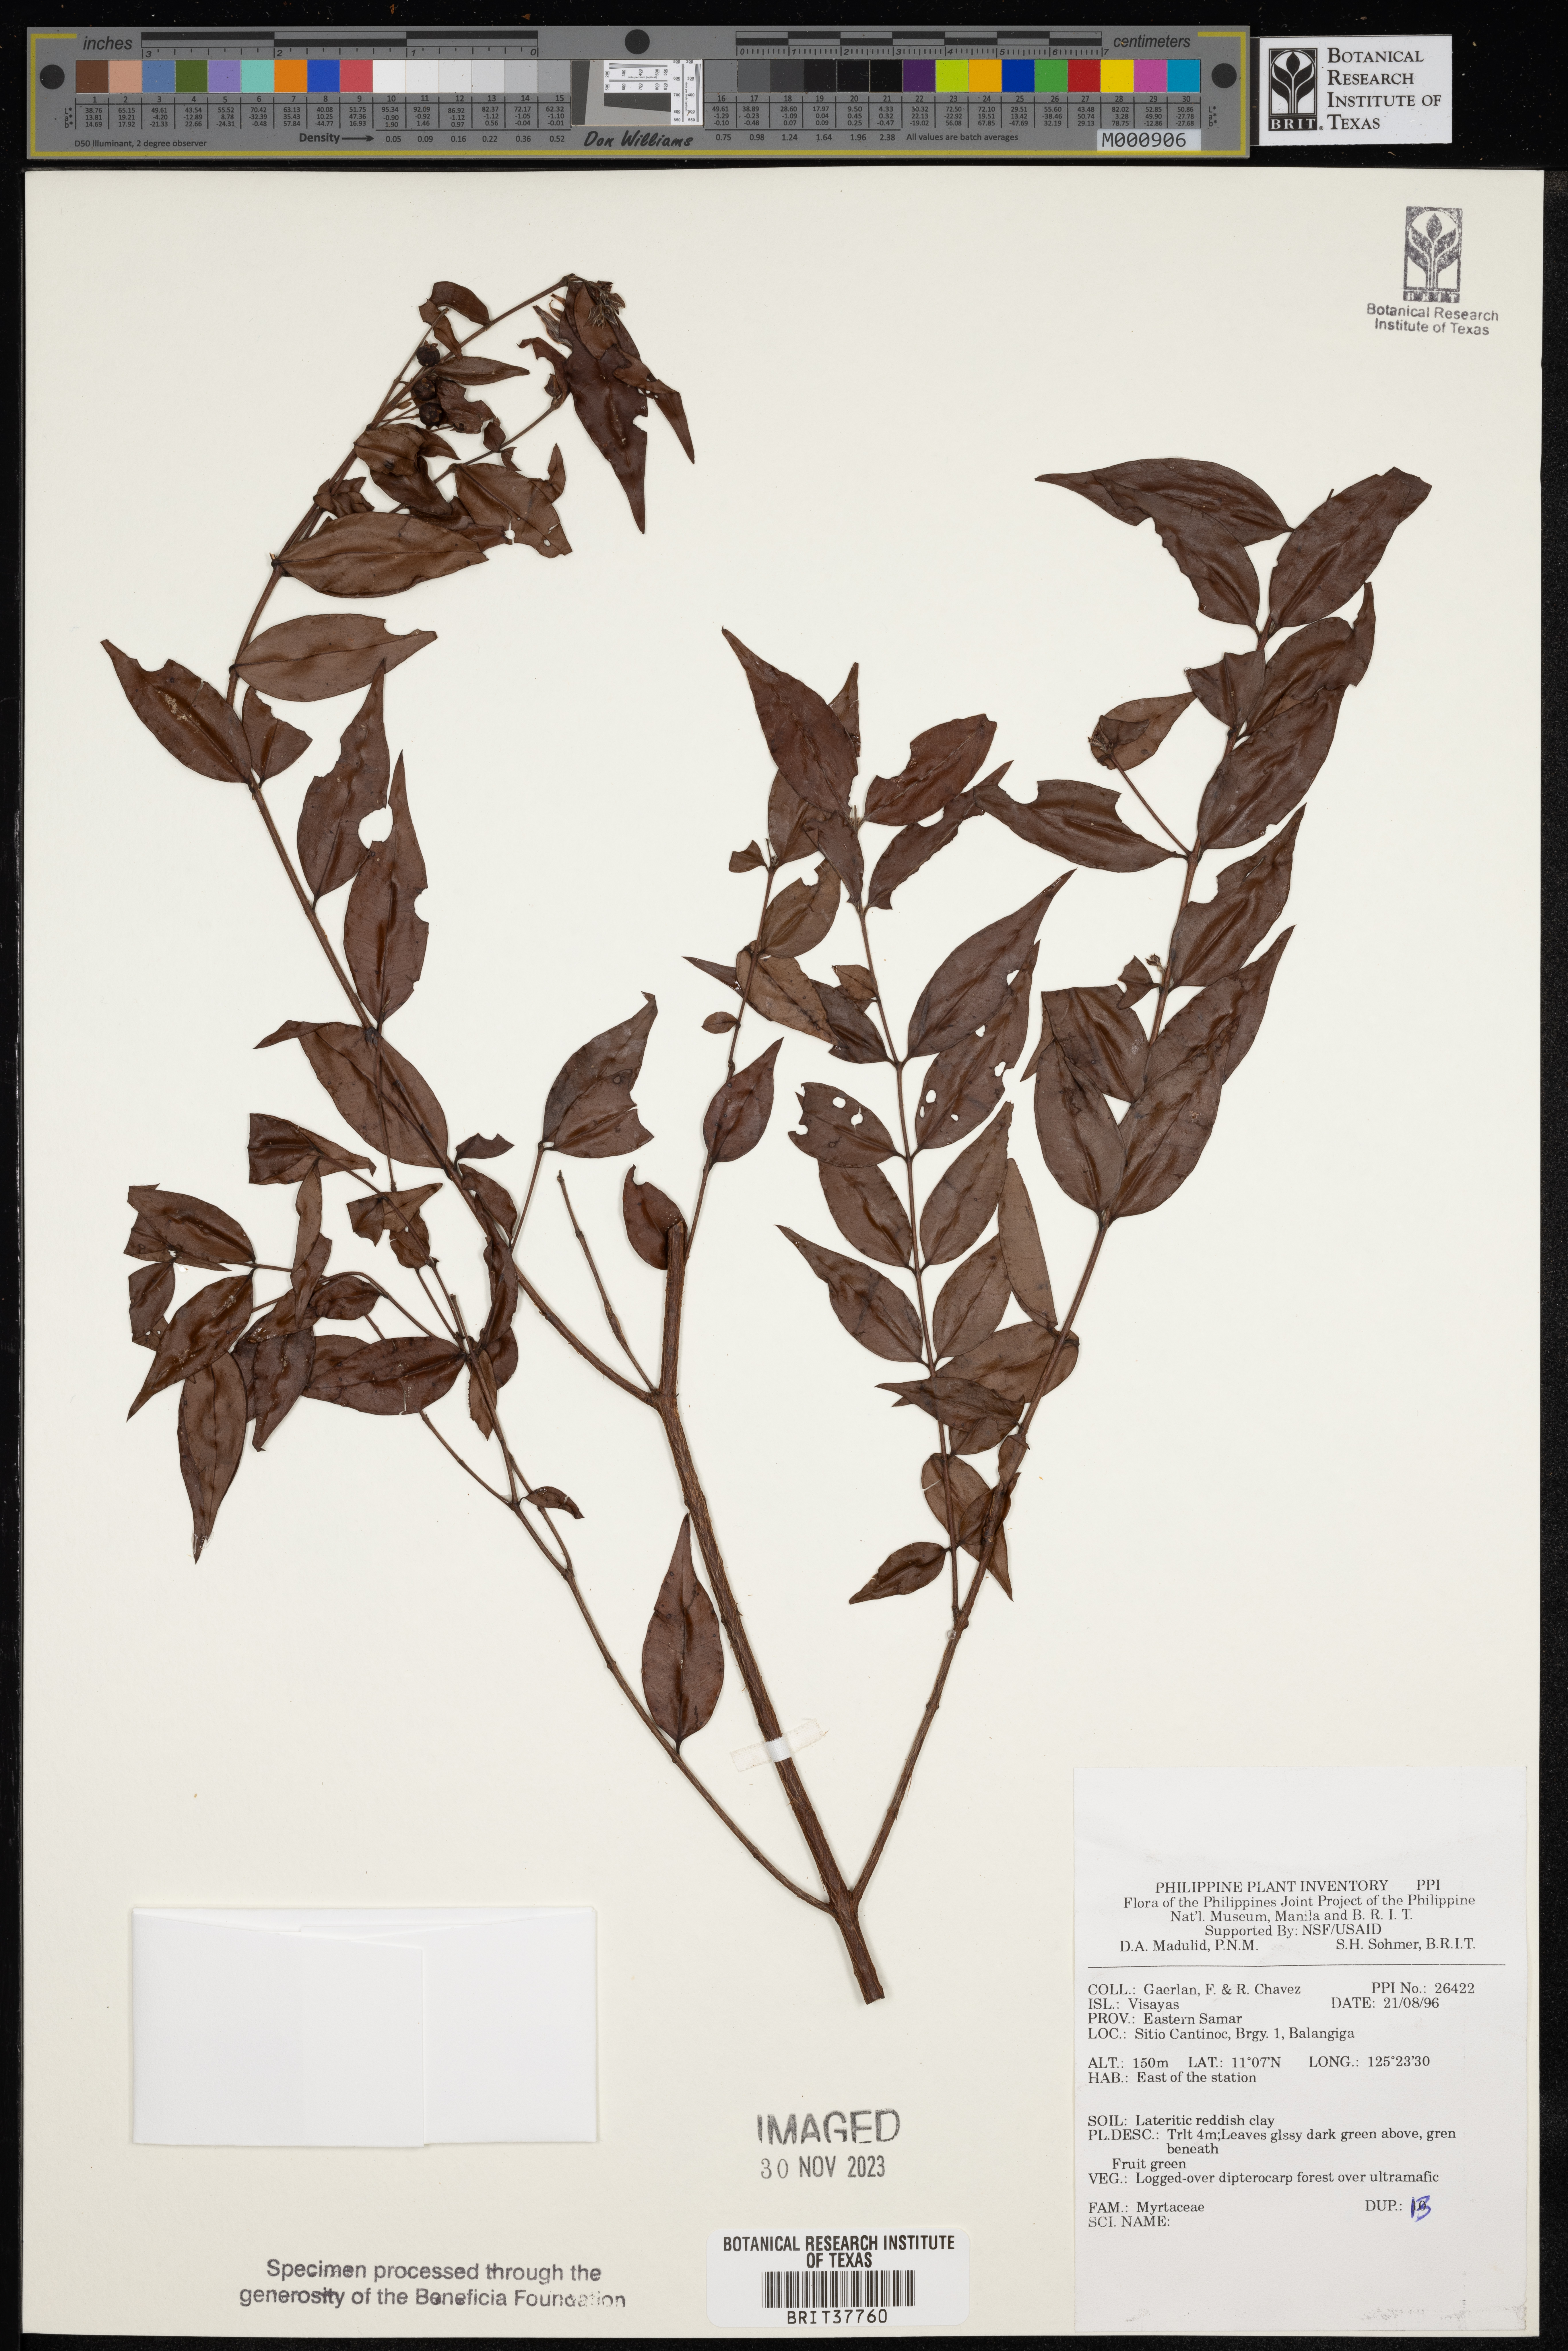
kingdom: Plantae
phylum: Tracheophyta
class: Magnoliopsida
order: Myrtales
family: Myrtaceae
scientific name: Myrtaceae
